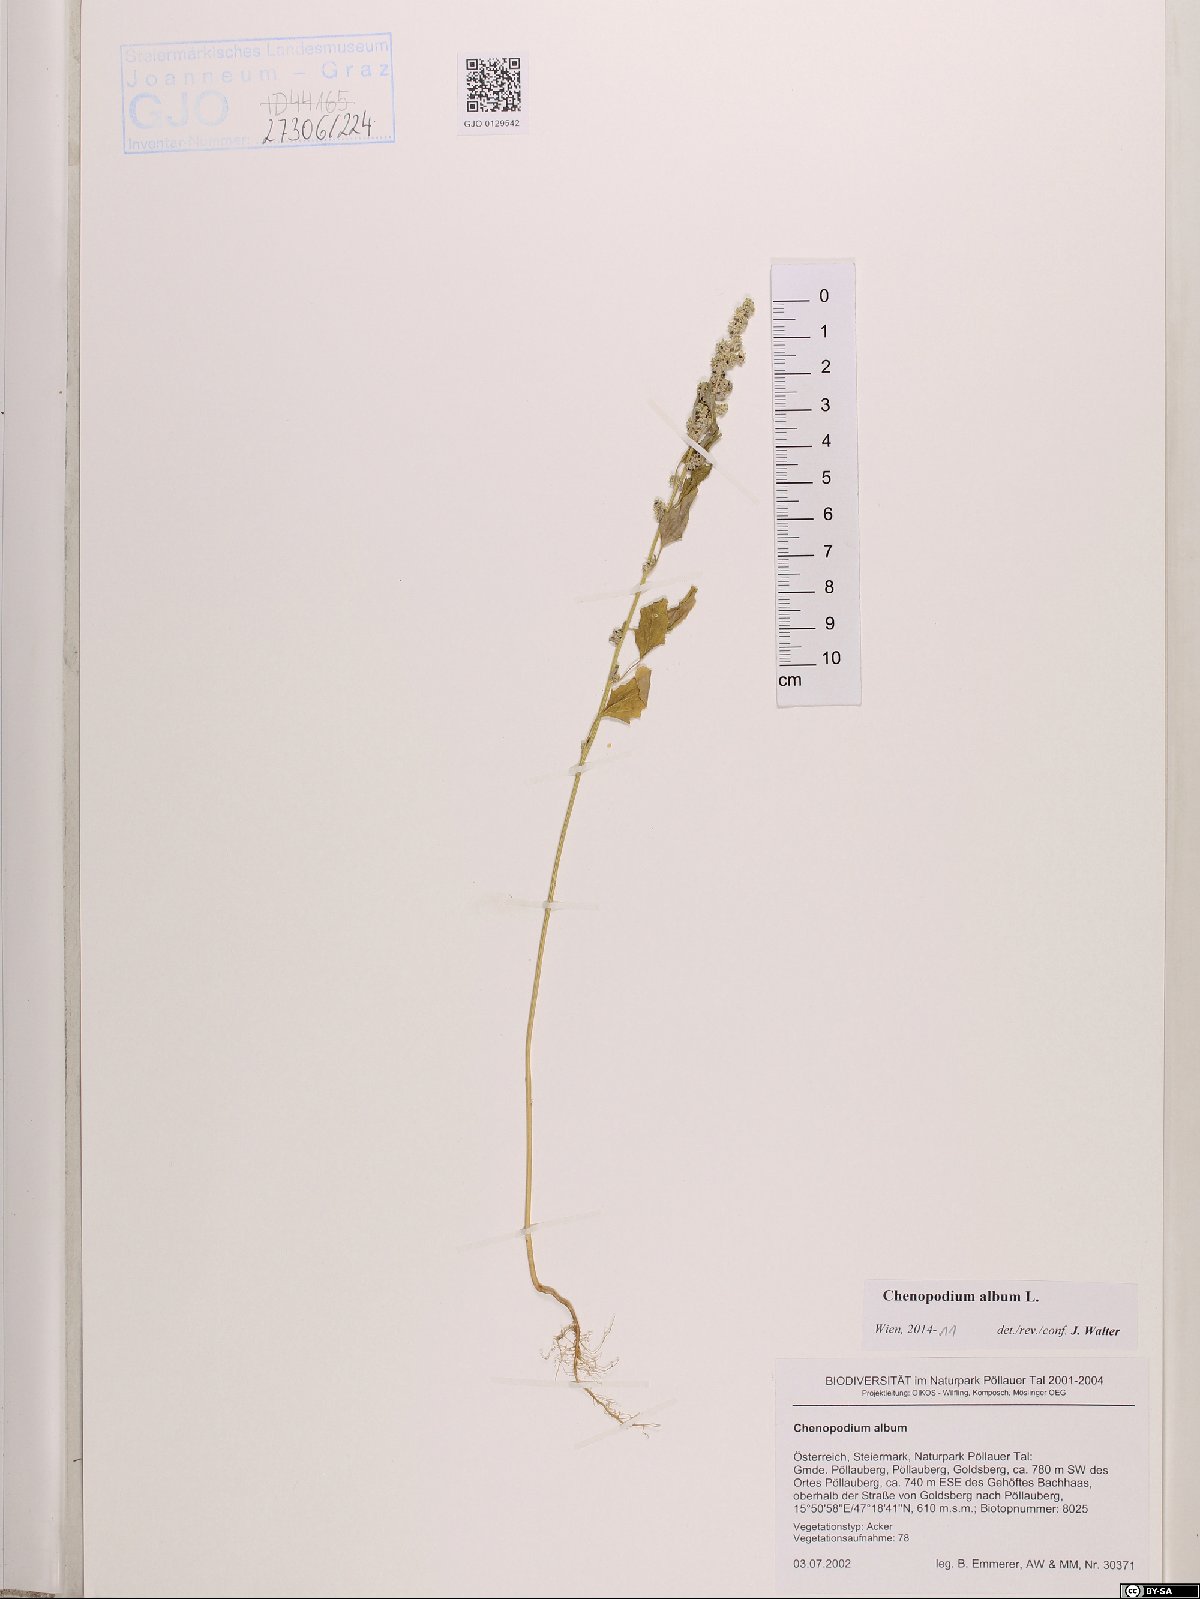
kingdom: Plantae
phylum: Tracheophyta
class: Magnoliopsida
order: Caryophyllales
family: Amaranthaceae
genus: Chenopodium
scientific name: Chenopodium album
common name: Fat-hen
